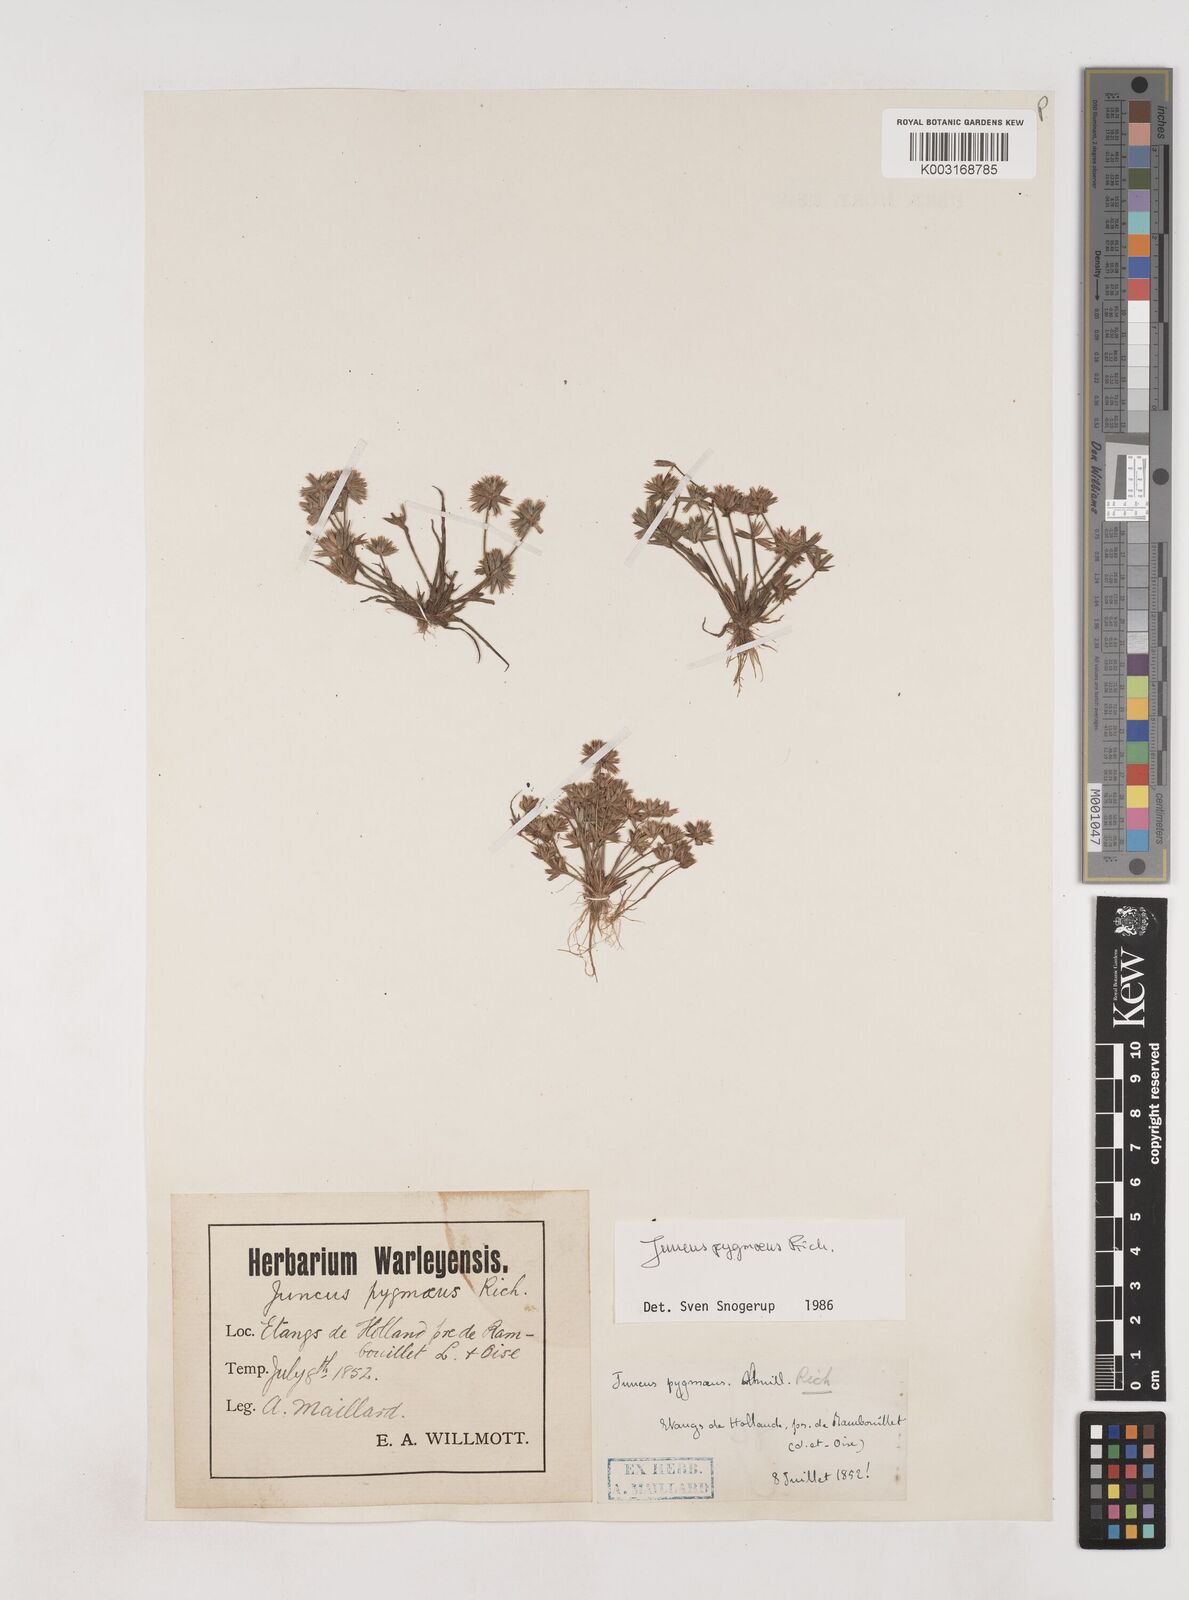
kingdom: Plantae
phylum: Tracheophyta
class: Liliopsida
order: Poales
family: Juncaceae
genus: Juncus
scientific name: Juncus pygmaeus
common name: Pigmy rush
